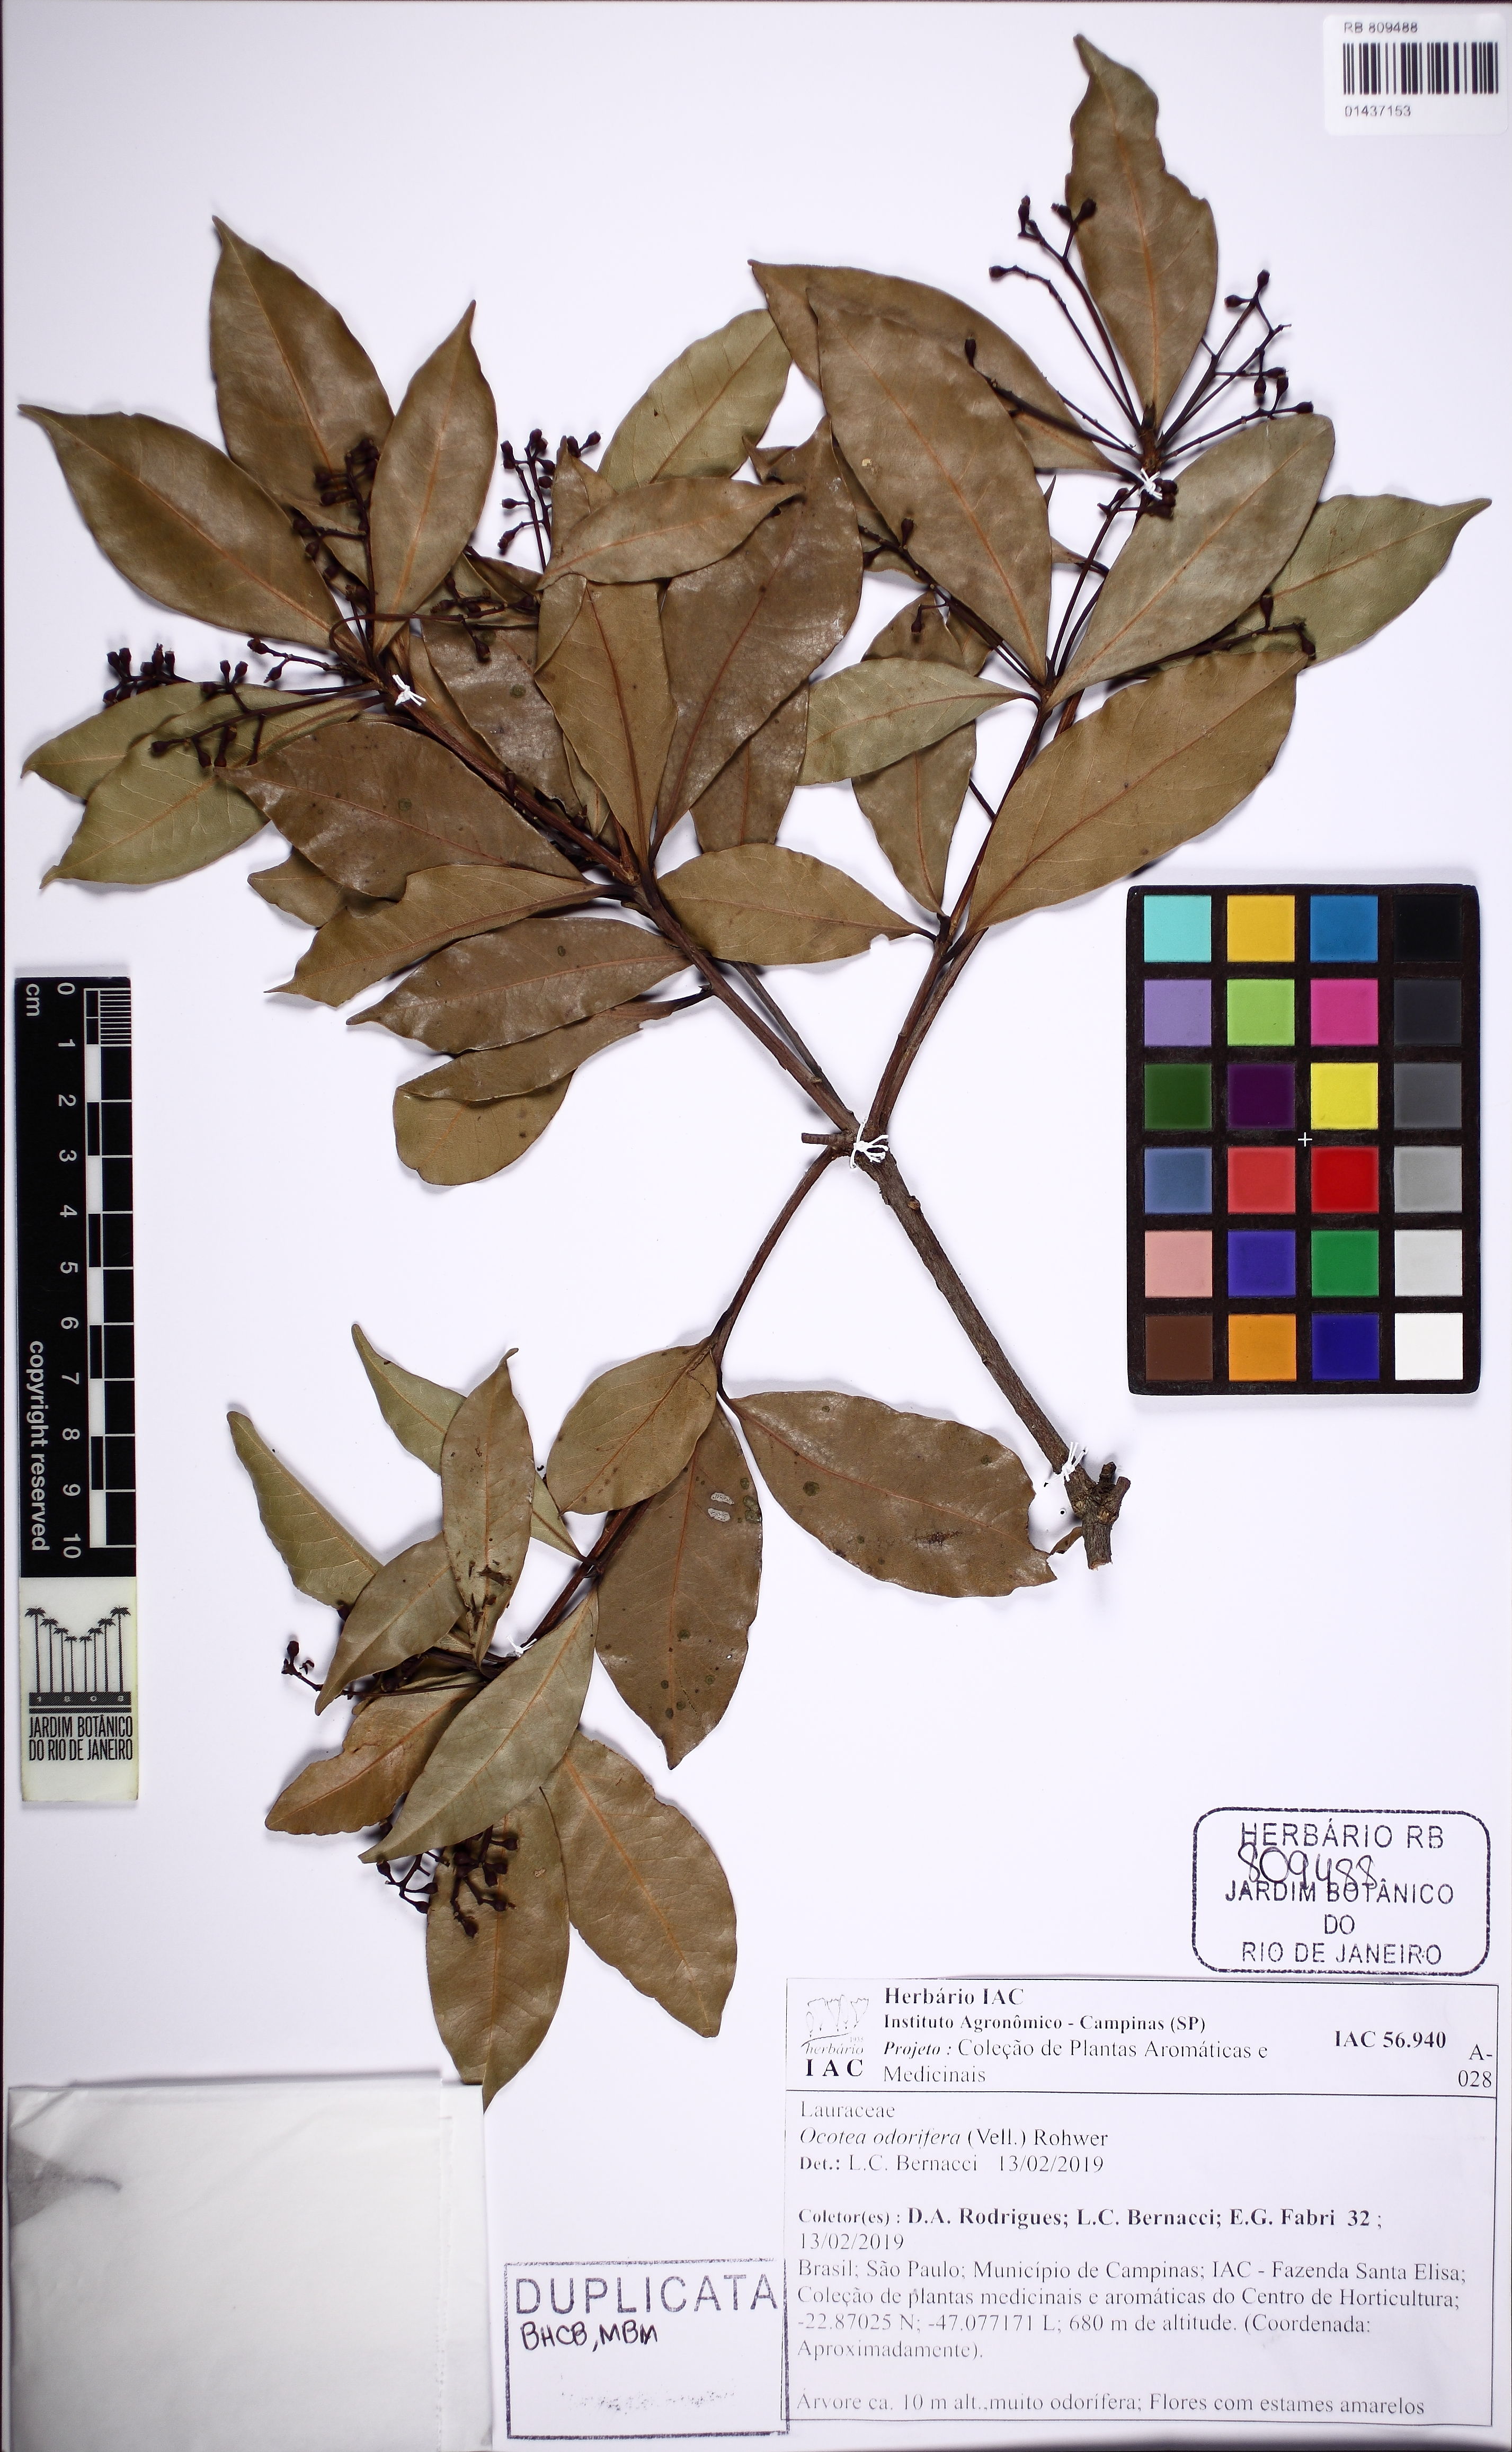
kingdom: Plantae
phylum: Tracheophyta
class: Magnoliopsida
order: Laurales
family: Lauraceae
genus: Mespilodaphne
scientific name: Mespilodaphne quixos
